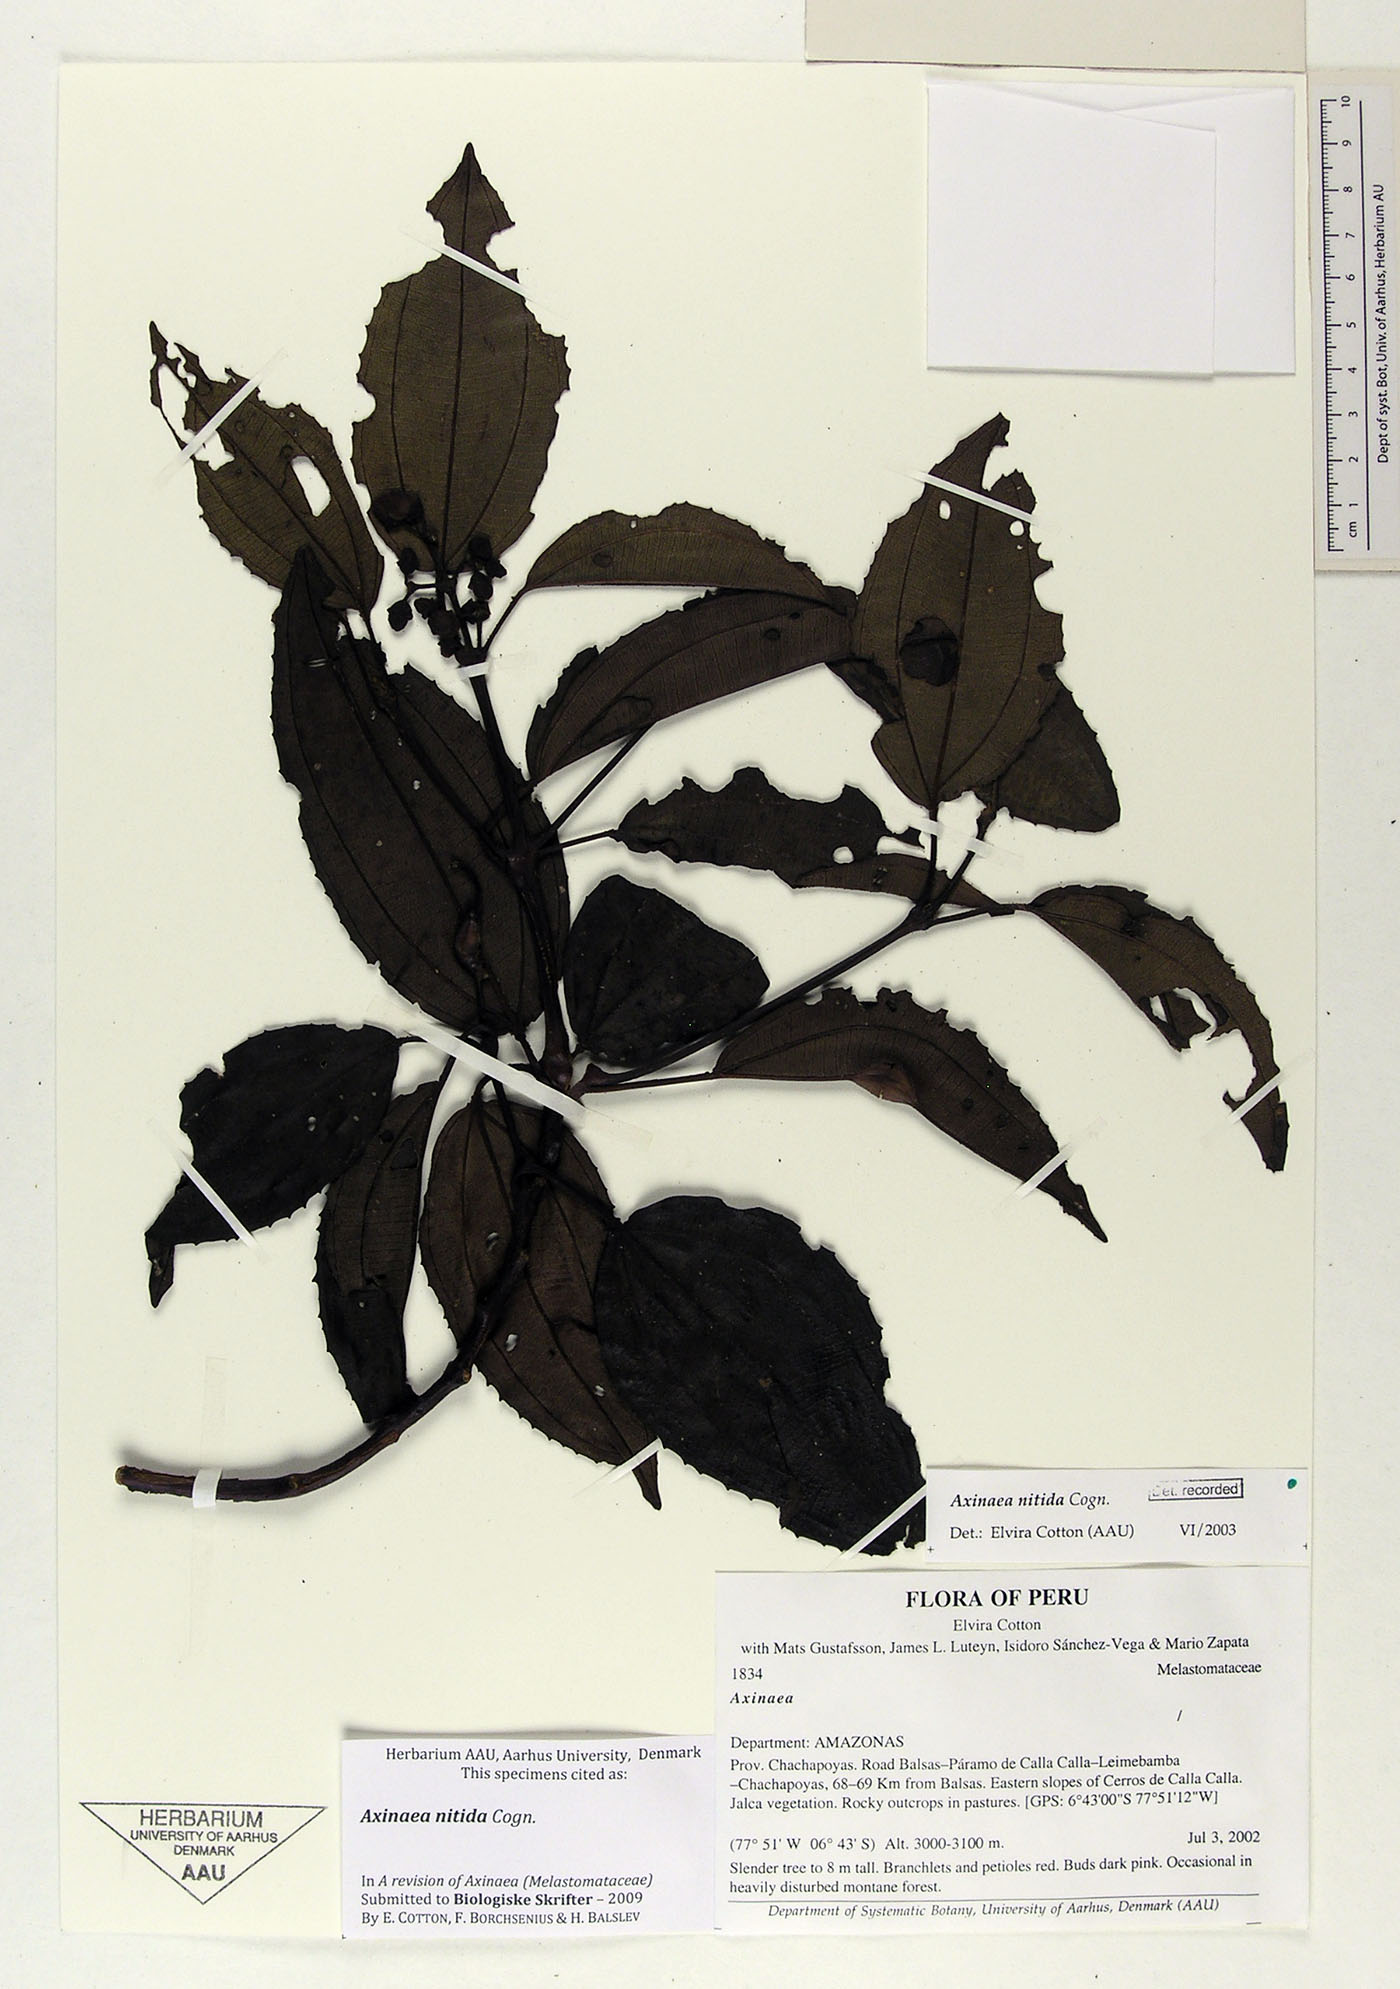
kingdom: Plantae
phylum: Tracheophyta
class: Magnoliopsida
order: Myrtales
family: Melastomataceae
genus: Axinaea
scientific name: Axinaea nitida
